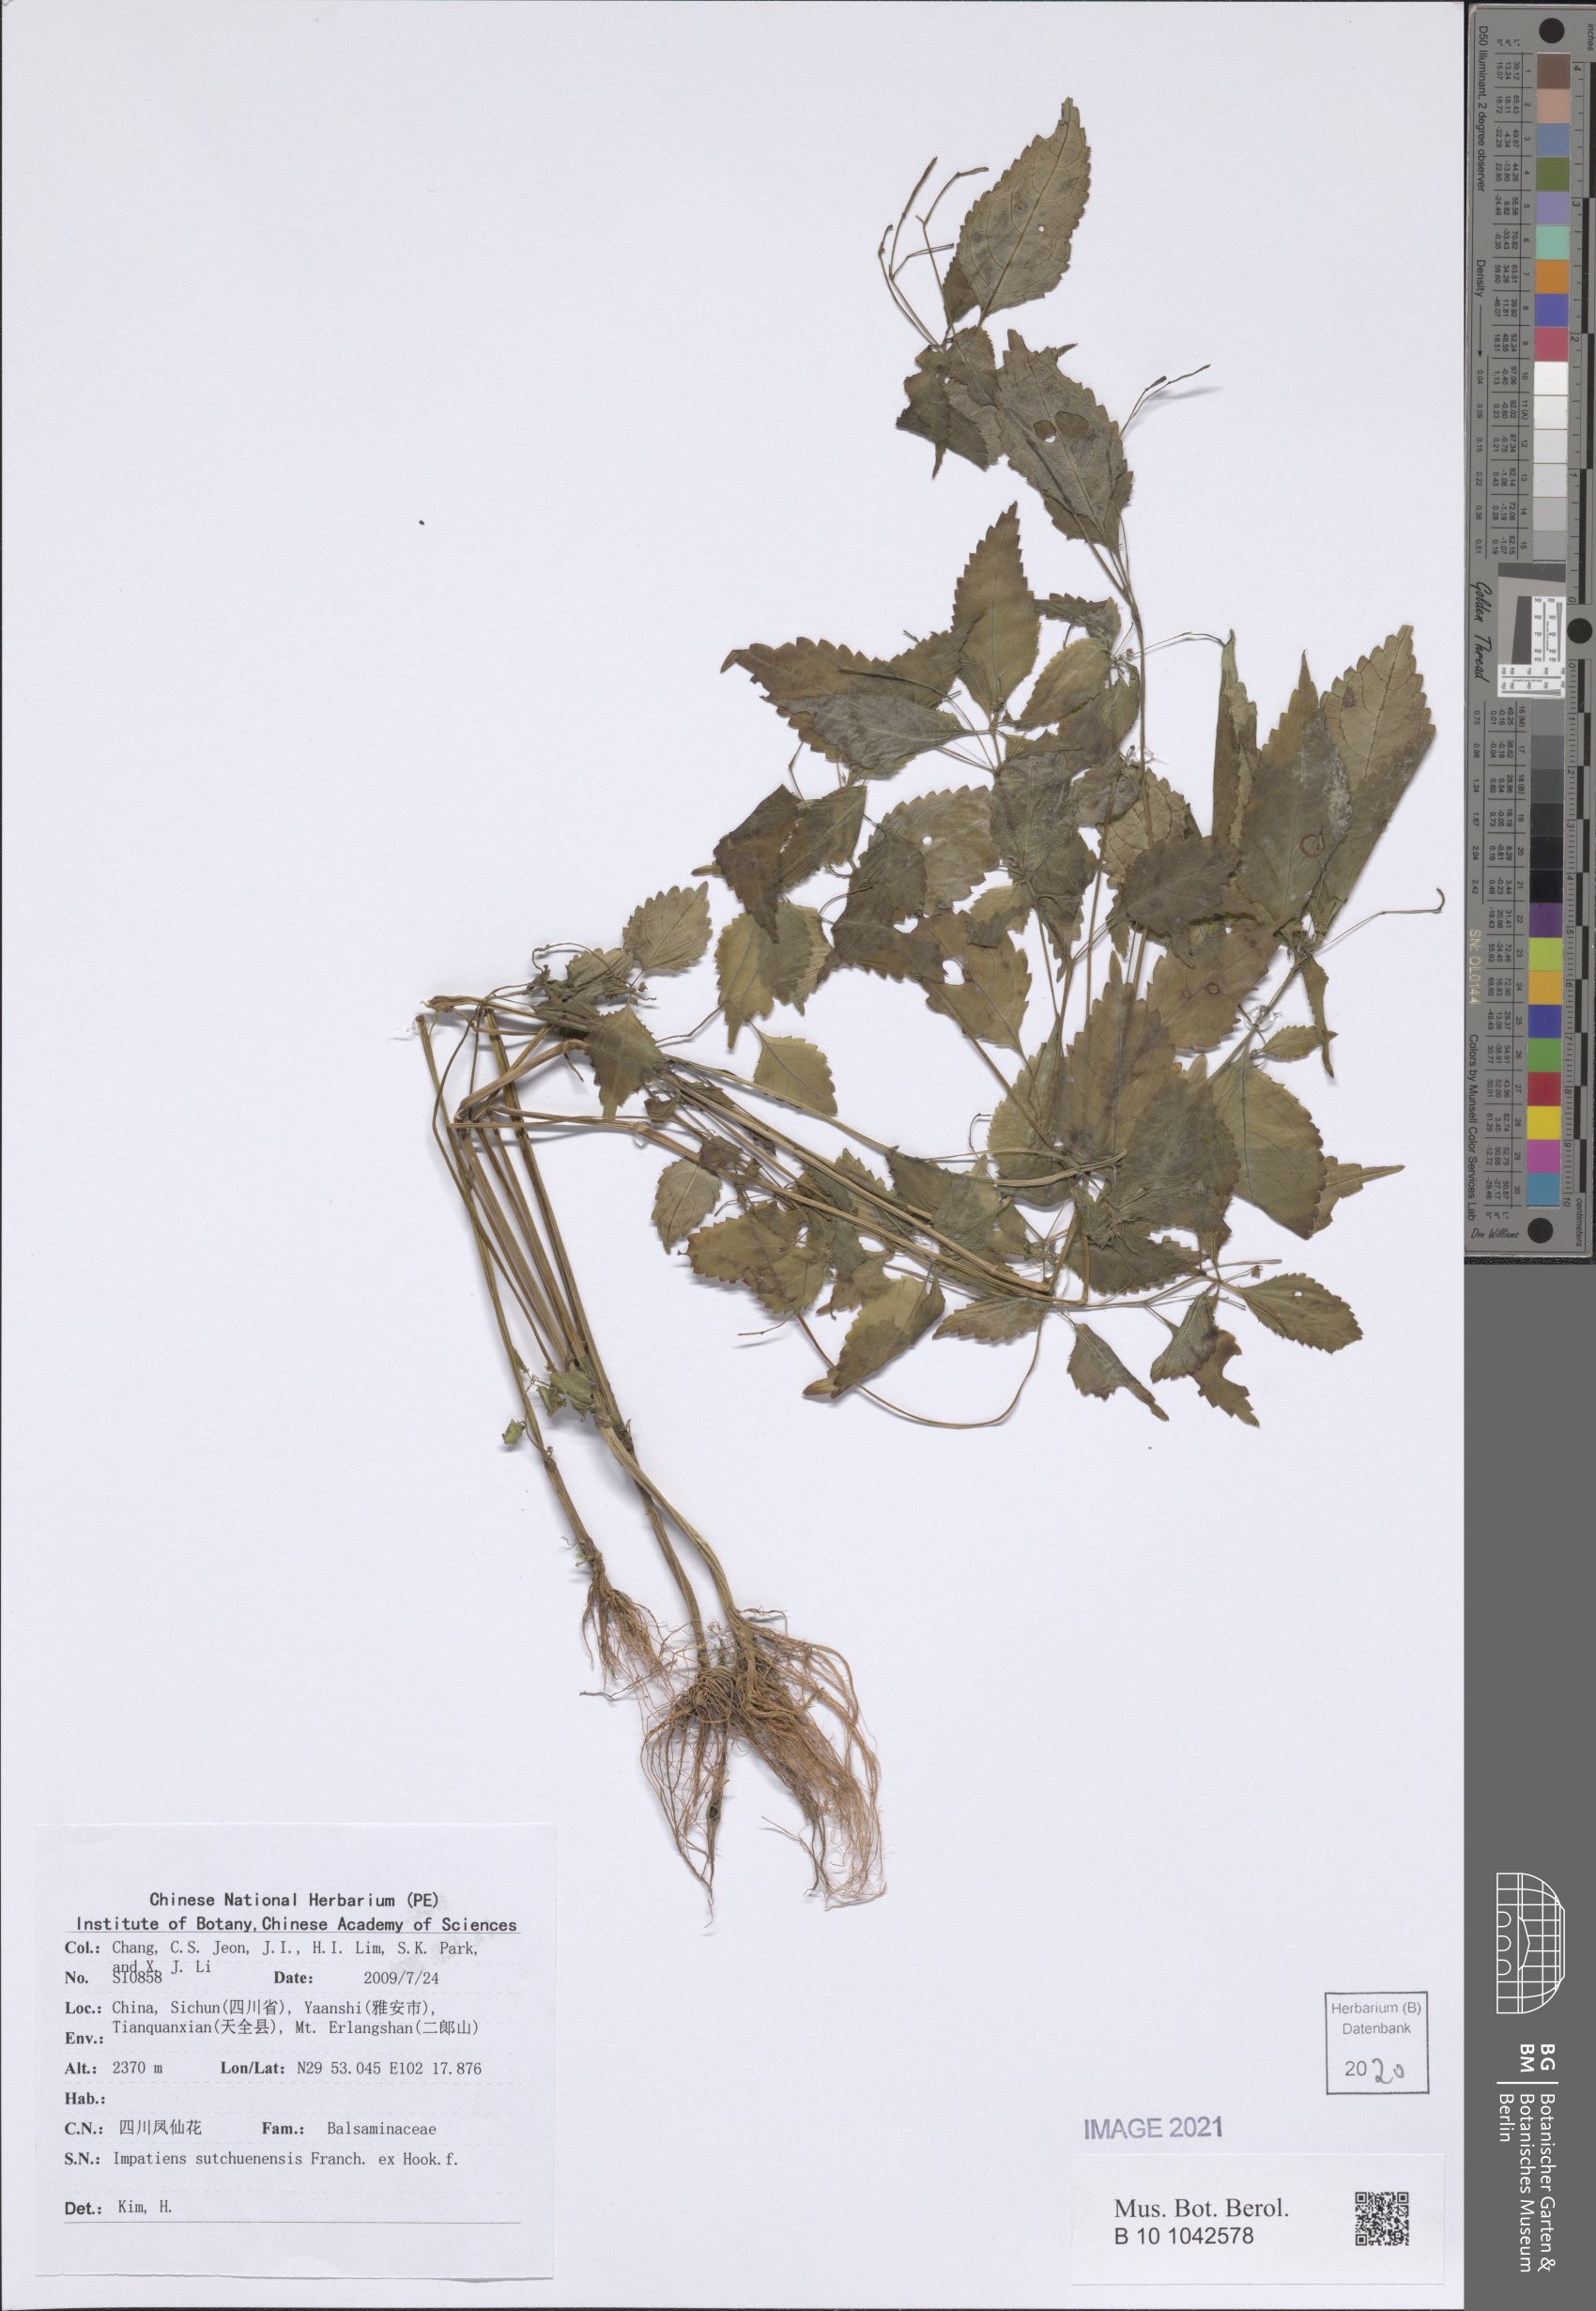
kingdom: Plantae
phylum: Tracheophyta
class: Magnoliopsida
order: Ericales
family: Balsaminaceae
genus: Impatiens
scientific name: Impatiens sutchuenensis
